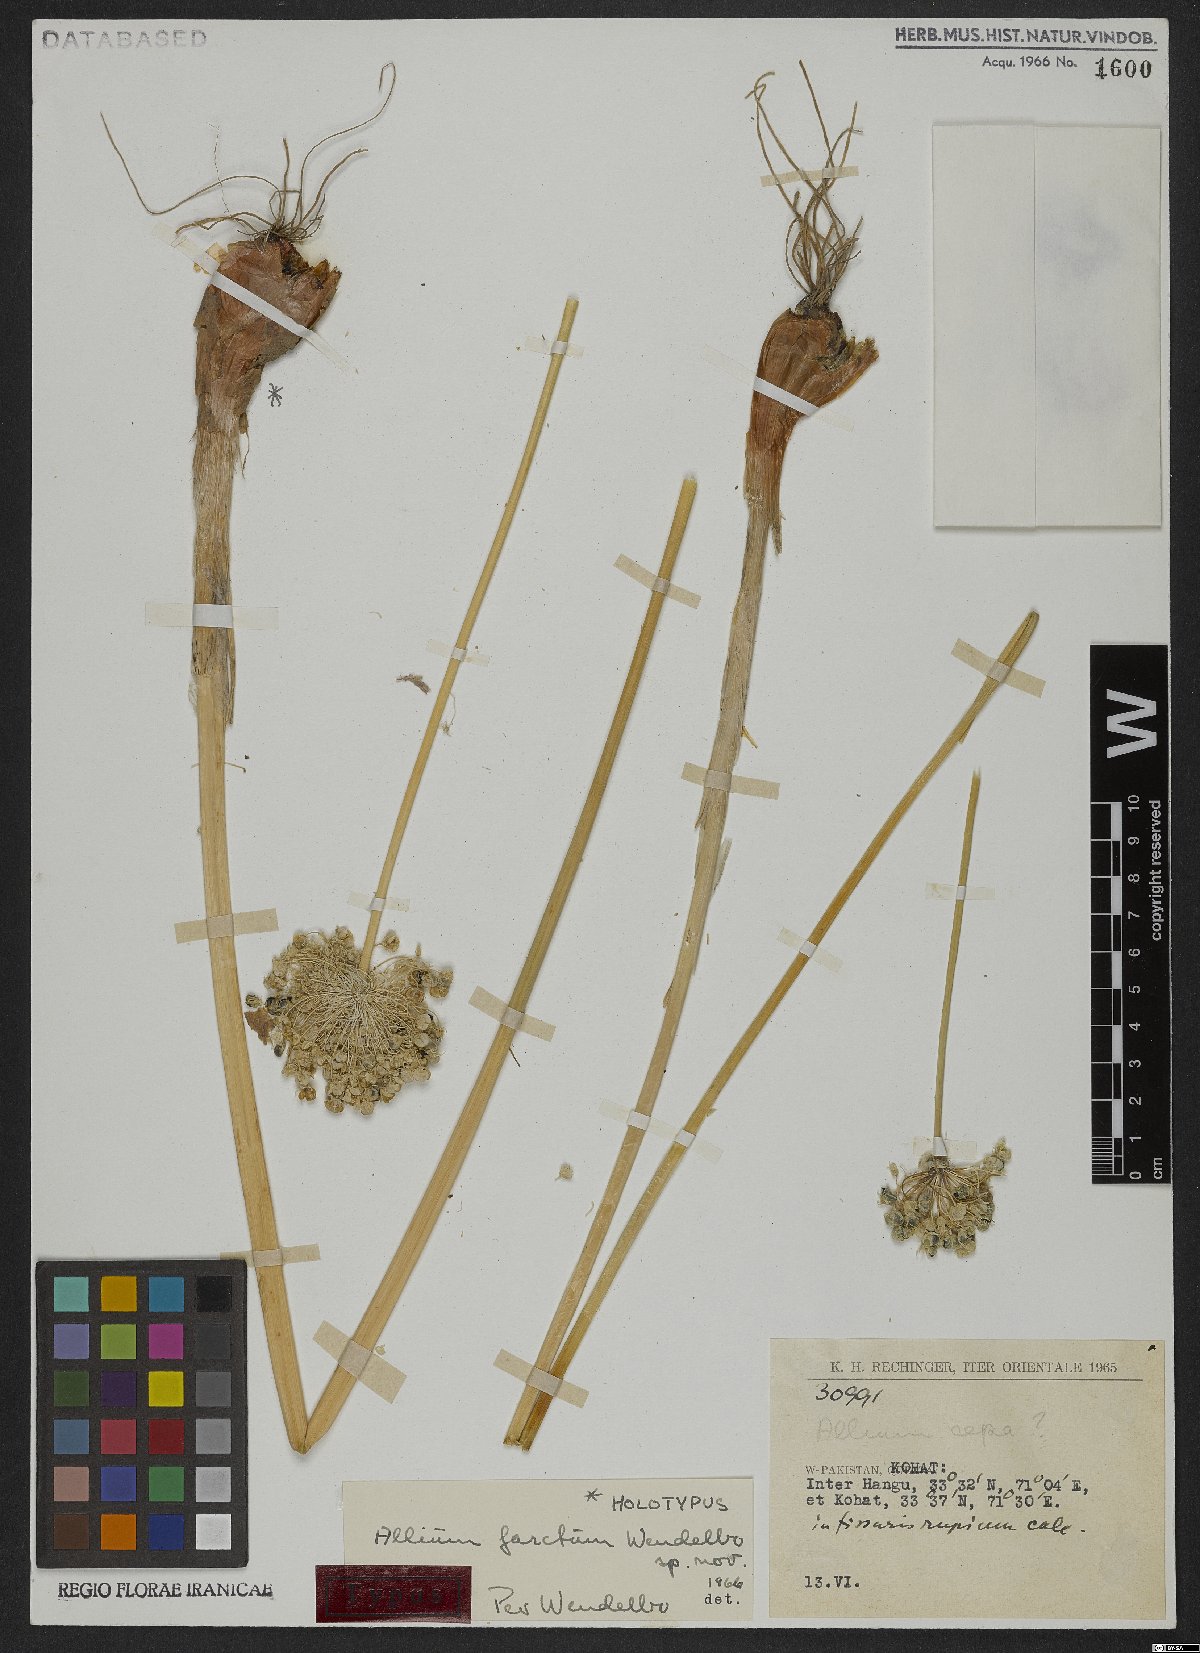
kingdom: Plantae
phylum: Tracheophyta
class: Liliopsida
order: Asparagales
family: Amaryllidaceae
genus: Allium
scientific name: Allium farctum
